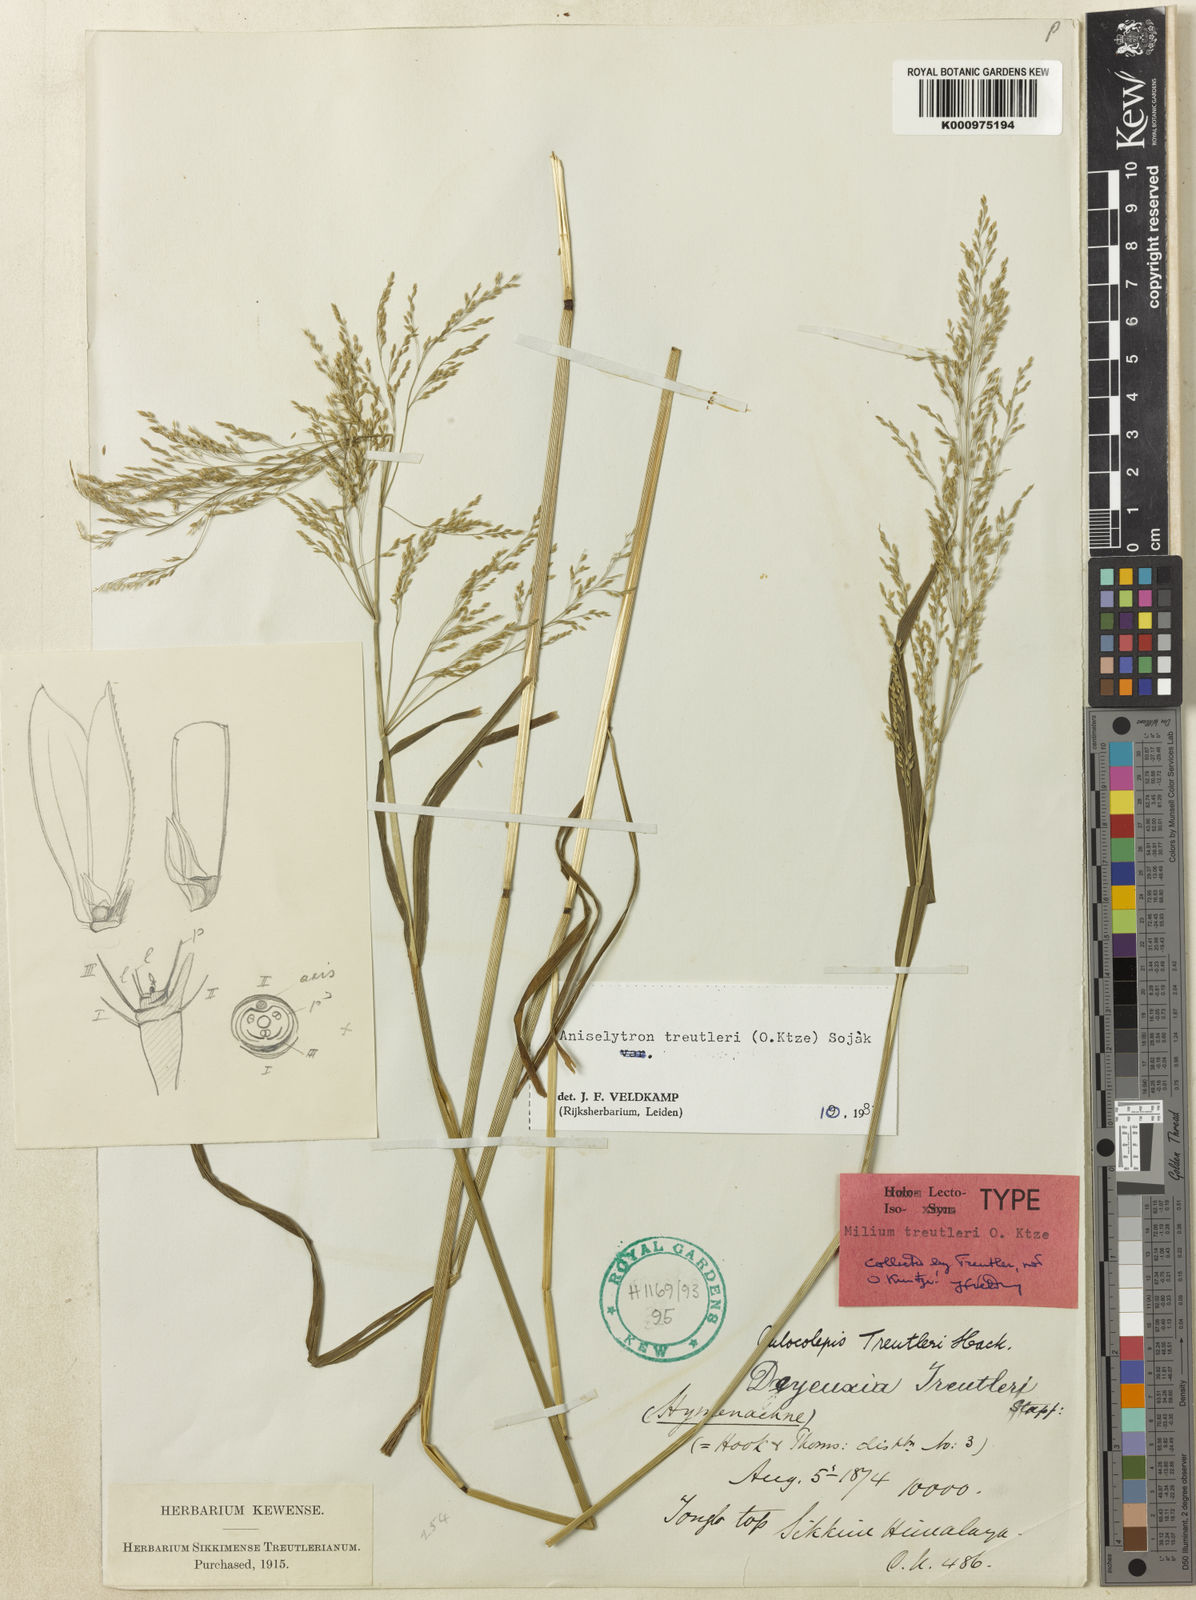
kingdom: Plantae
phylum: Tracheophyta
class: Liliopsida
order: Poales
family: Poaceae
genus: Aniselytron
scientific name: Aniselytron
